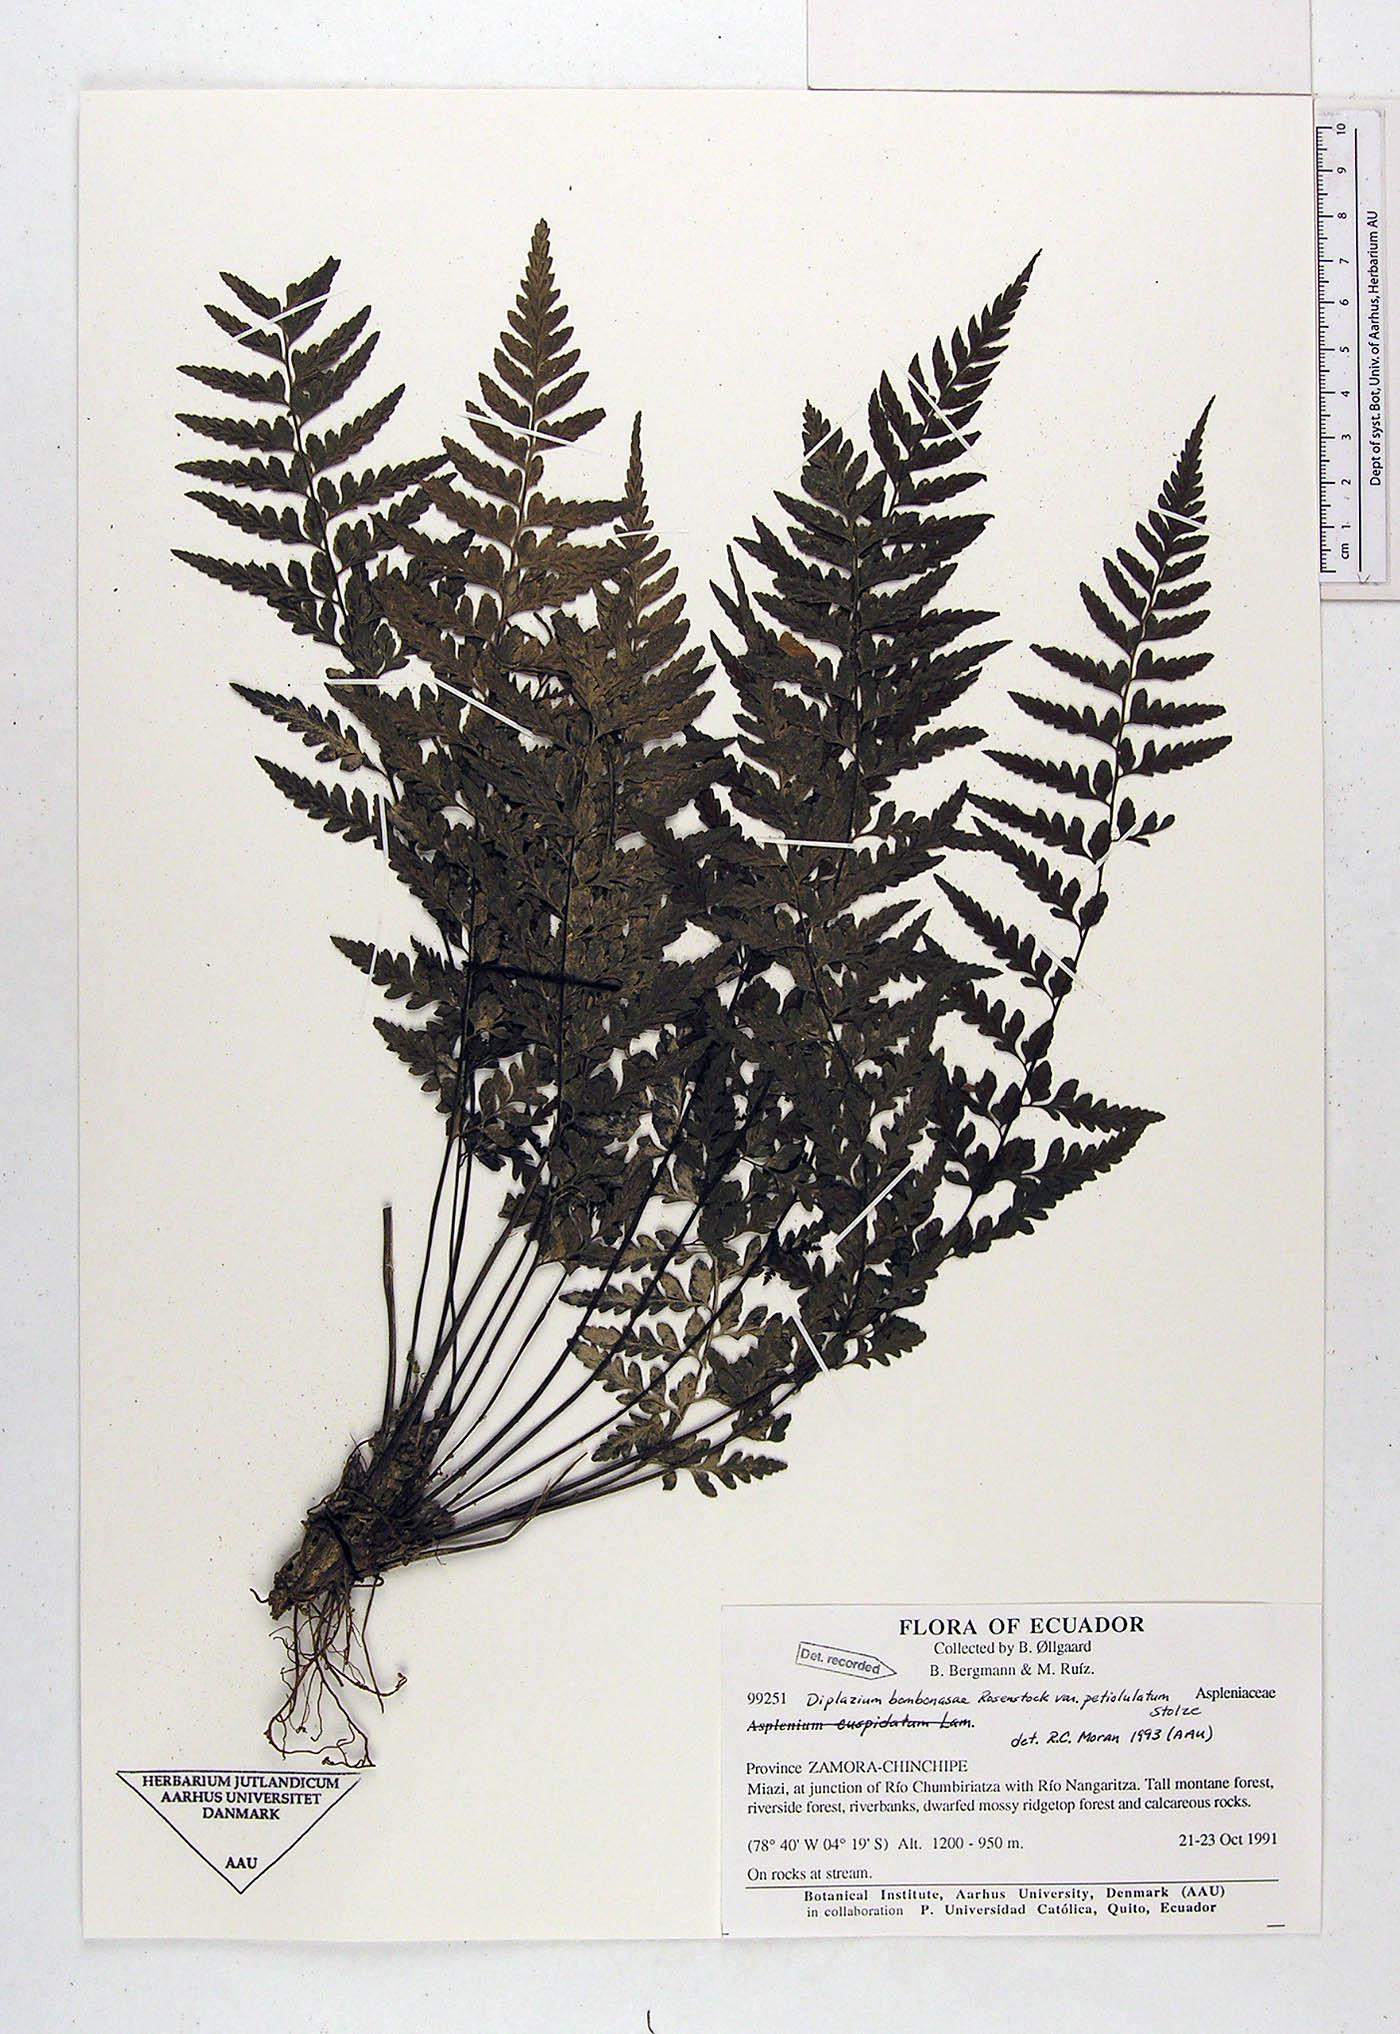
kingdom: Plantae
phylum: Tracheophyta
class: Polypodiopsida
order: Polypodiales
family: Athyriaceae
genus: Diplazium
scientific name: Diplazium bombonasae
